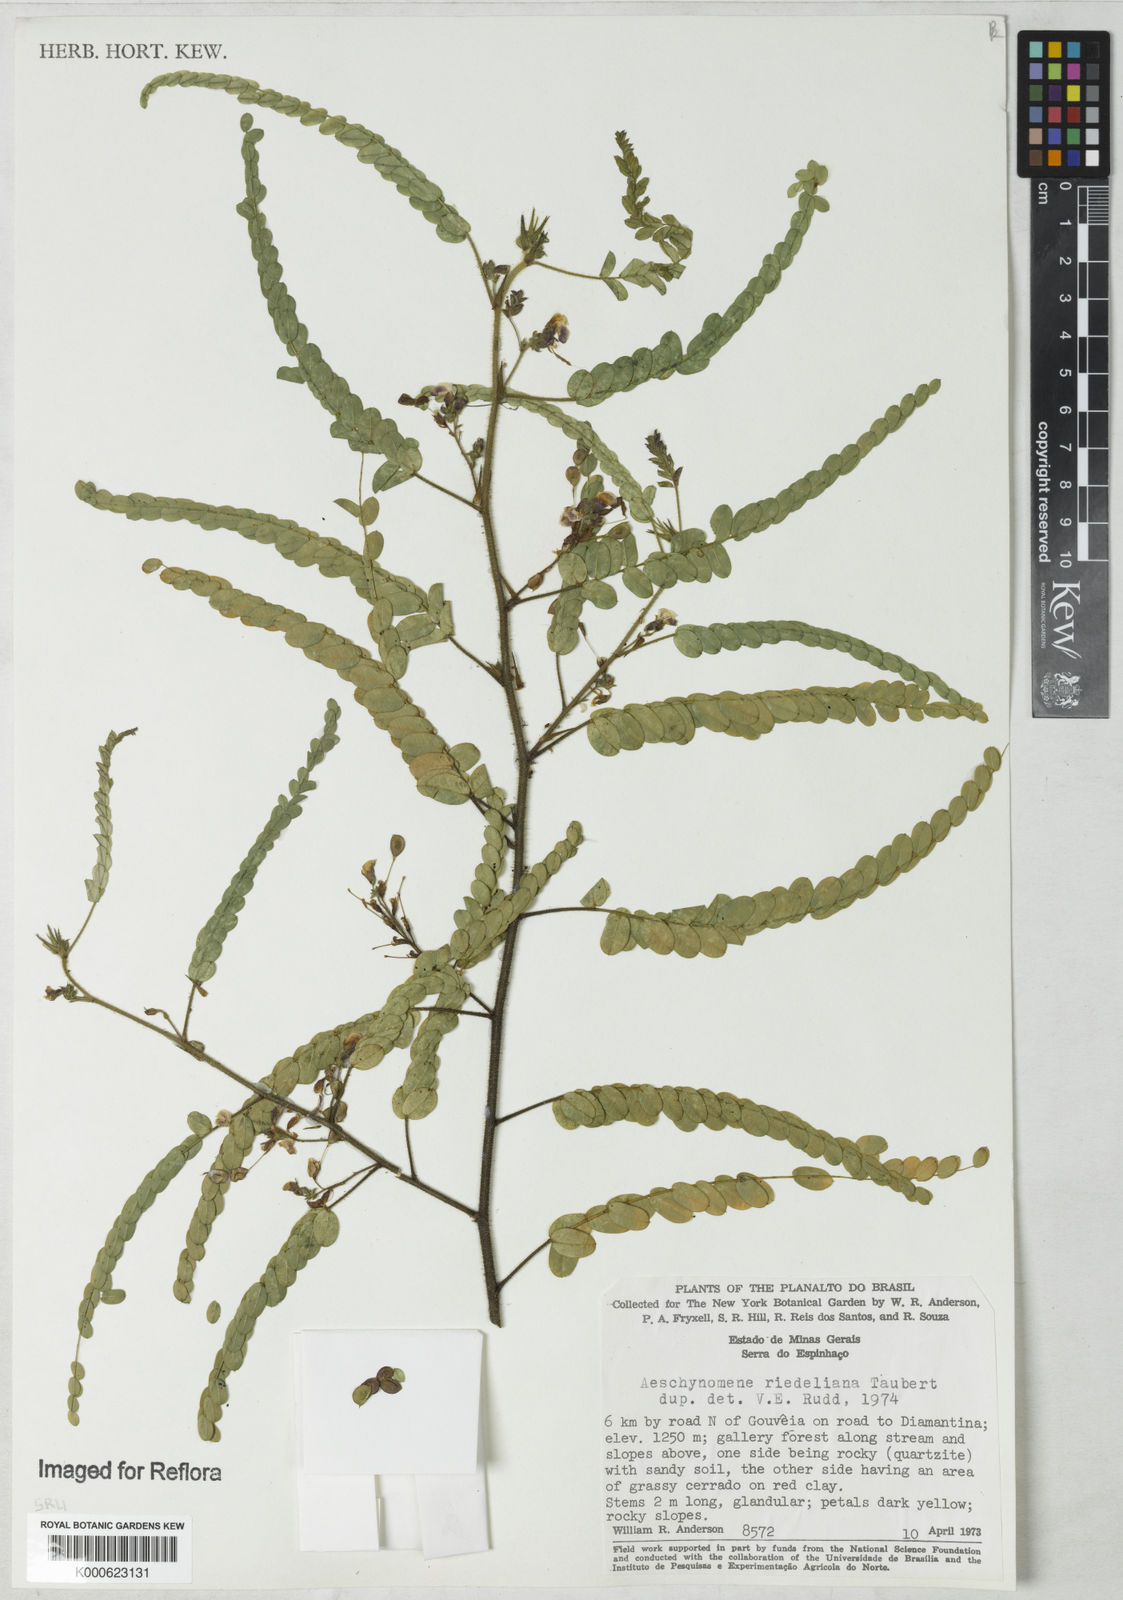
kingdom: Plantae
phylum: Tracheophyta
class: Magnoliopsida
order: Fabales
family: Fabaceae
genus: Ctenodon
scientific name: Ctenodon riedelianus
